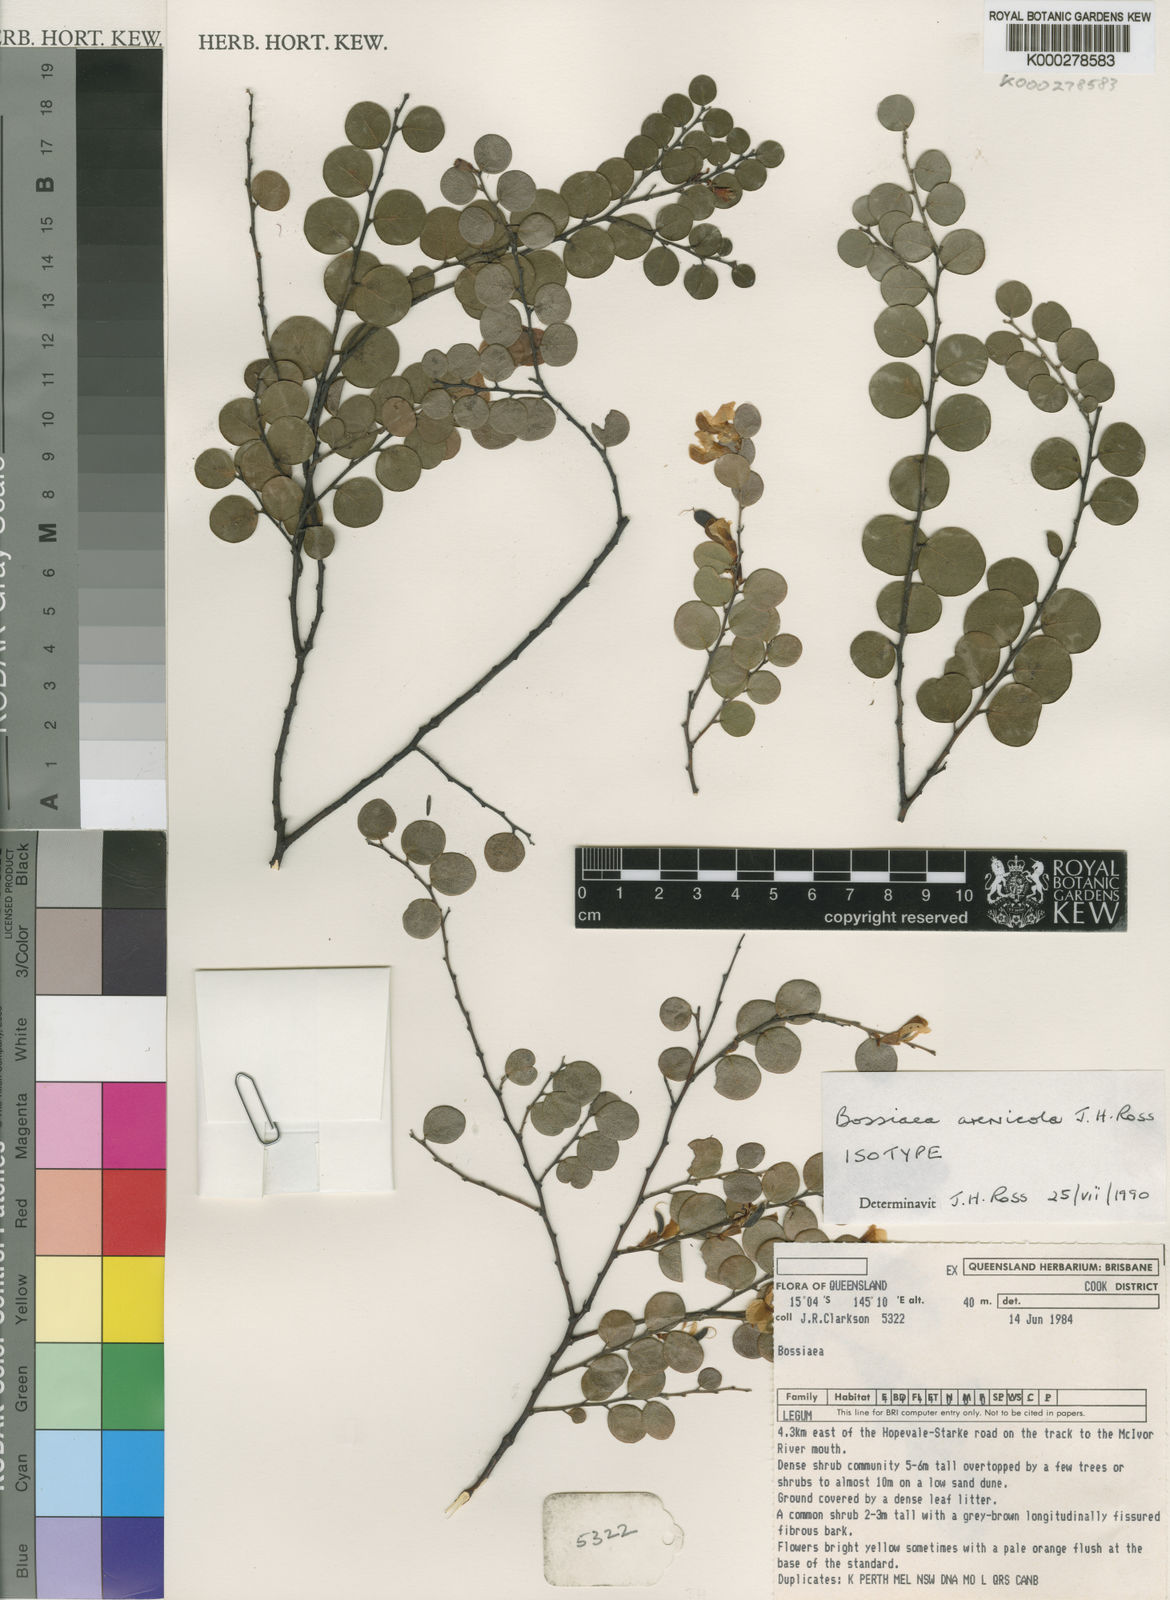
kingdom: Plantae
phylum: Tracheophyta
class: Magnoliopsida
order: Fabales
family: Fabaceae
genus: Bossiaea
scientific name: Bossiaea arenicola
